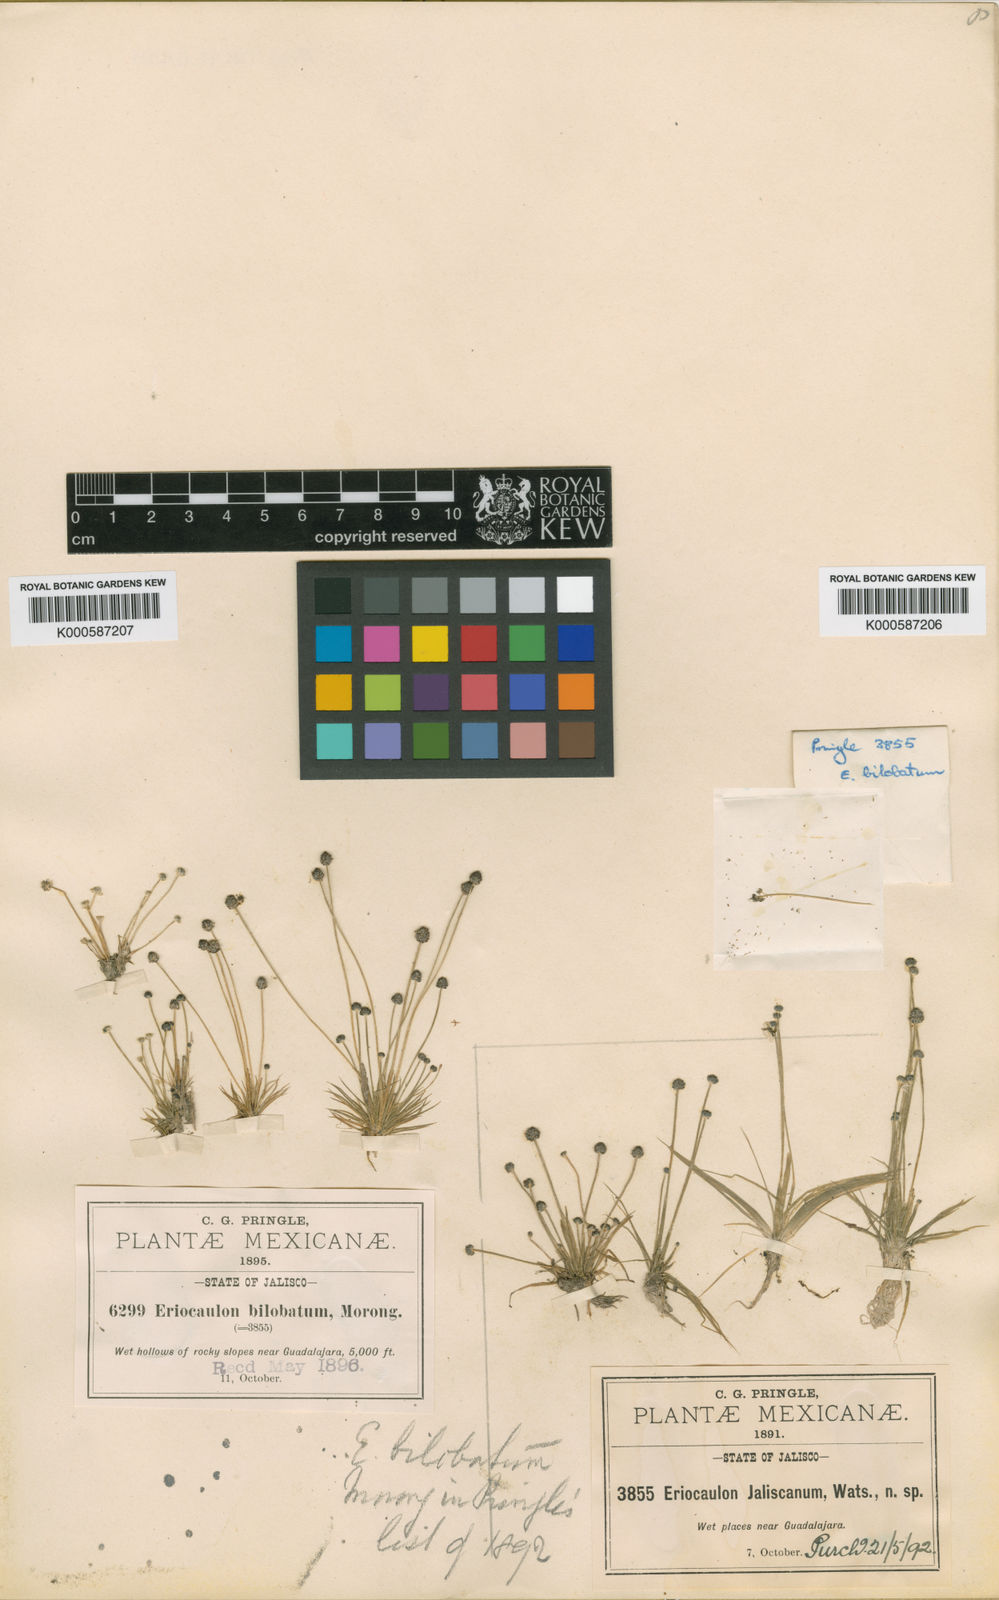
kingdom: Plantae
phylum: Tracheophyta
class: Liliopsida
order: Poales
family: Eriocaulaceae
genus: Eriocaulon
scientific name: Eriocaulon bilobatum
